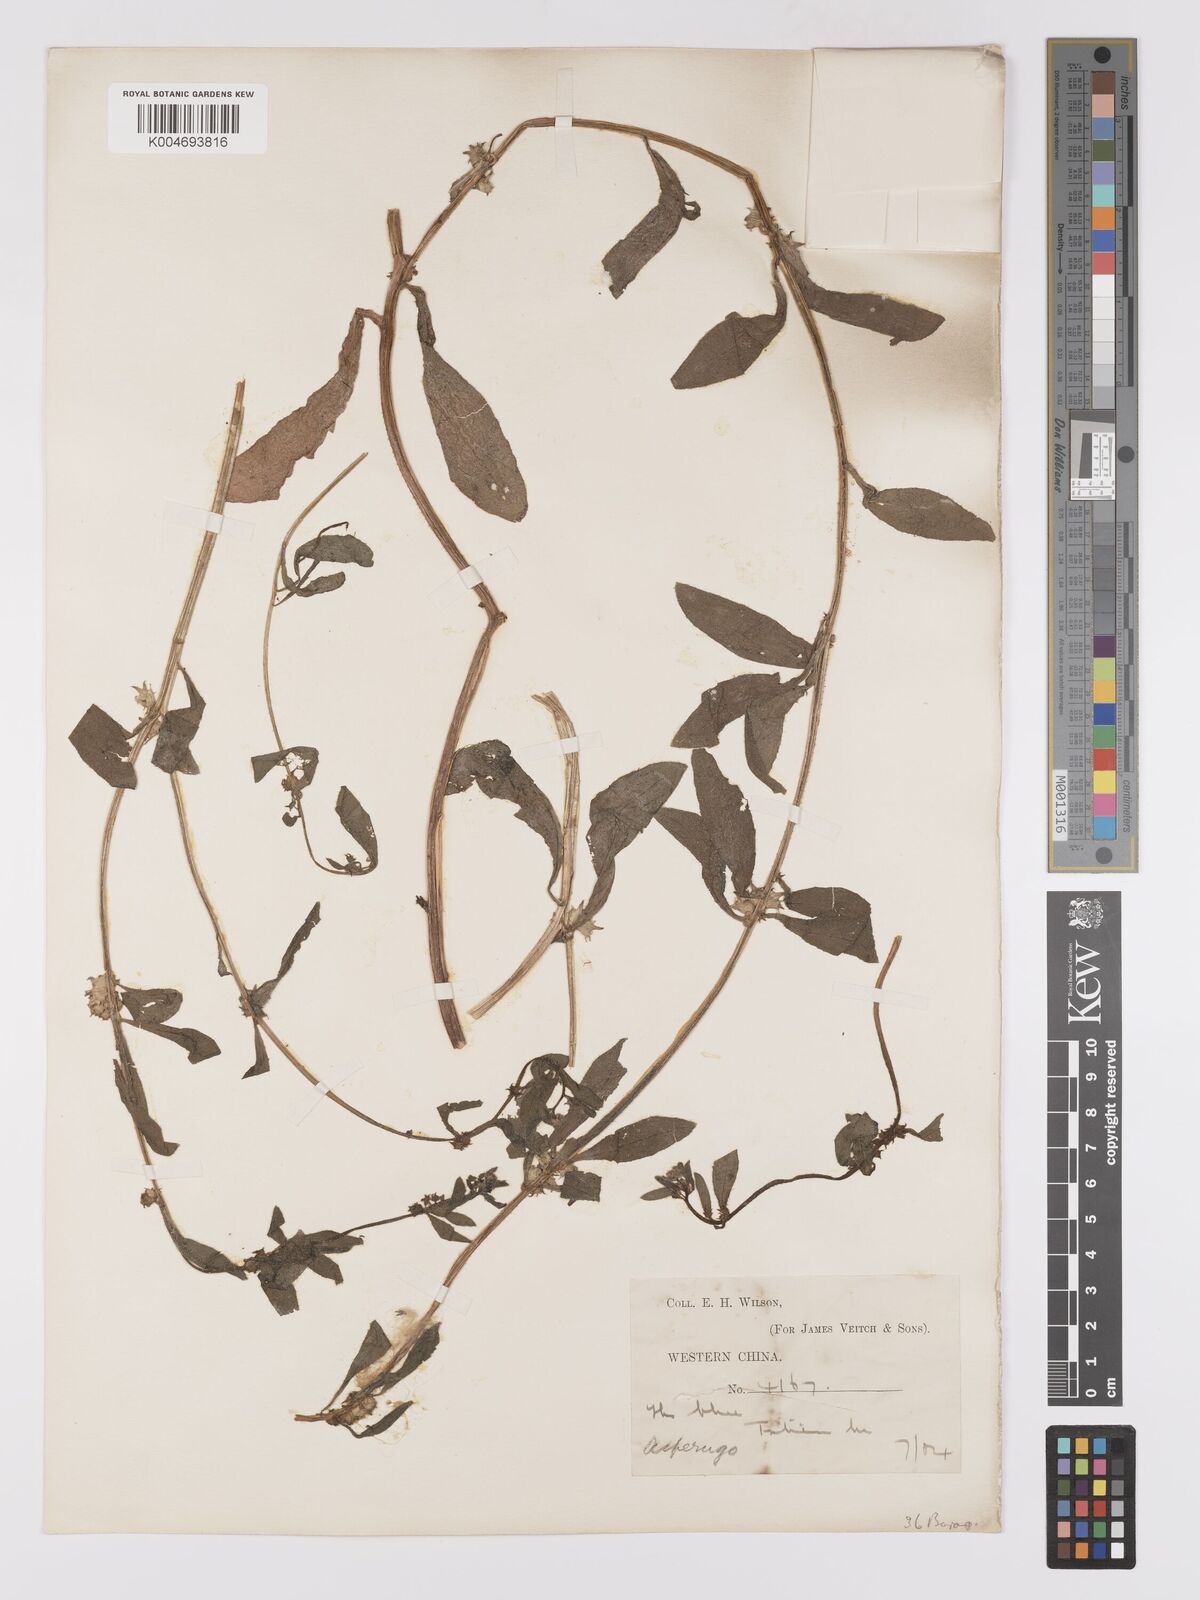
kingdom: Plantae
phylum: Tracheophyta
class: Magnoliopsida
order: Boraginales
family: Boraginaceae
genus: Asperugo
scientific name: Asperugo procumbens
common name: Madwort
